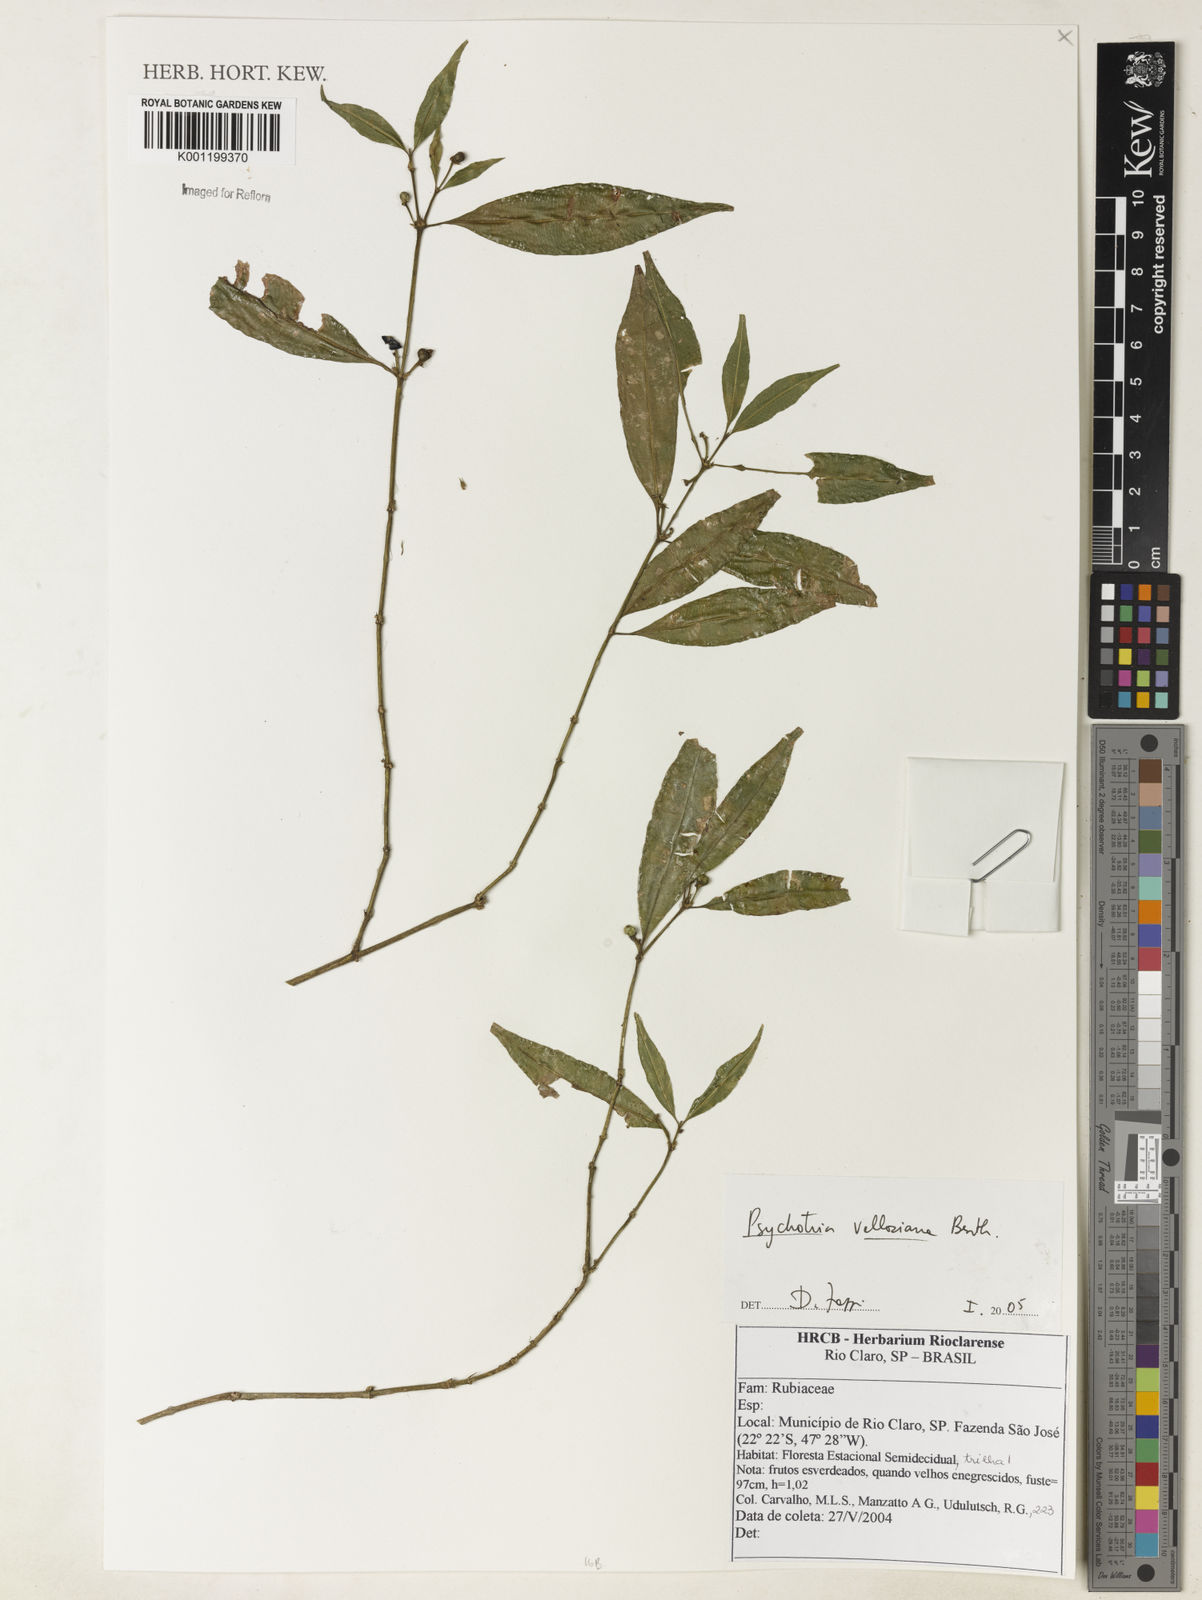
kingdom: Plantae
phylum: Tracheophyta
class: Magnoliopsida
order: Gentianales
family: Rubiaceae
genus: Palicourea
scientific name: Palicourea sessilis
